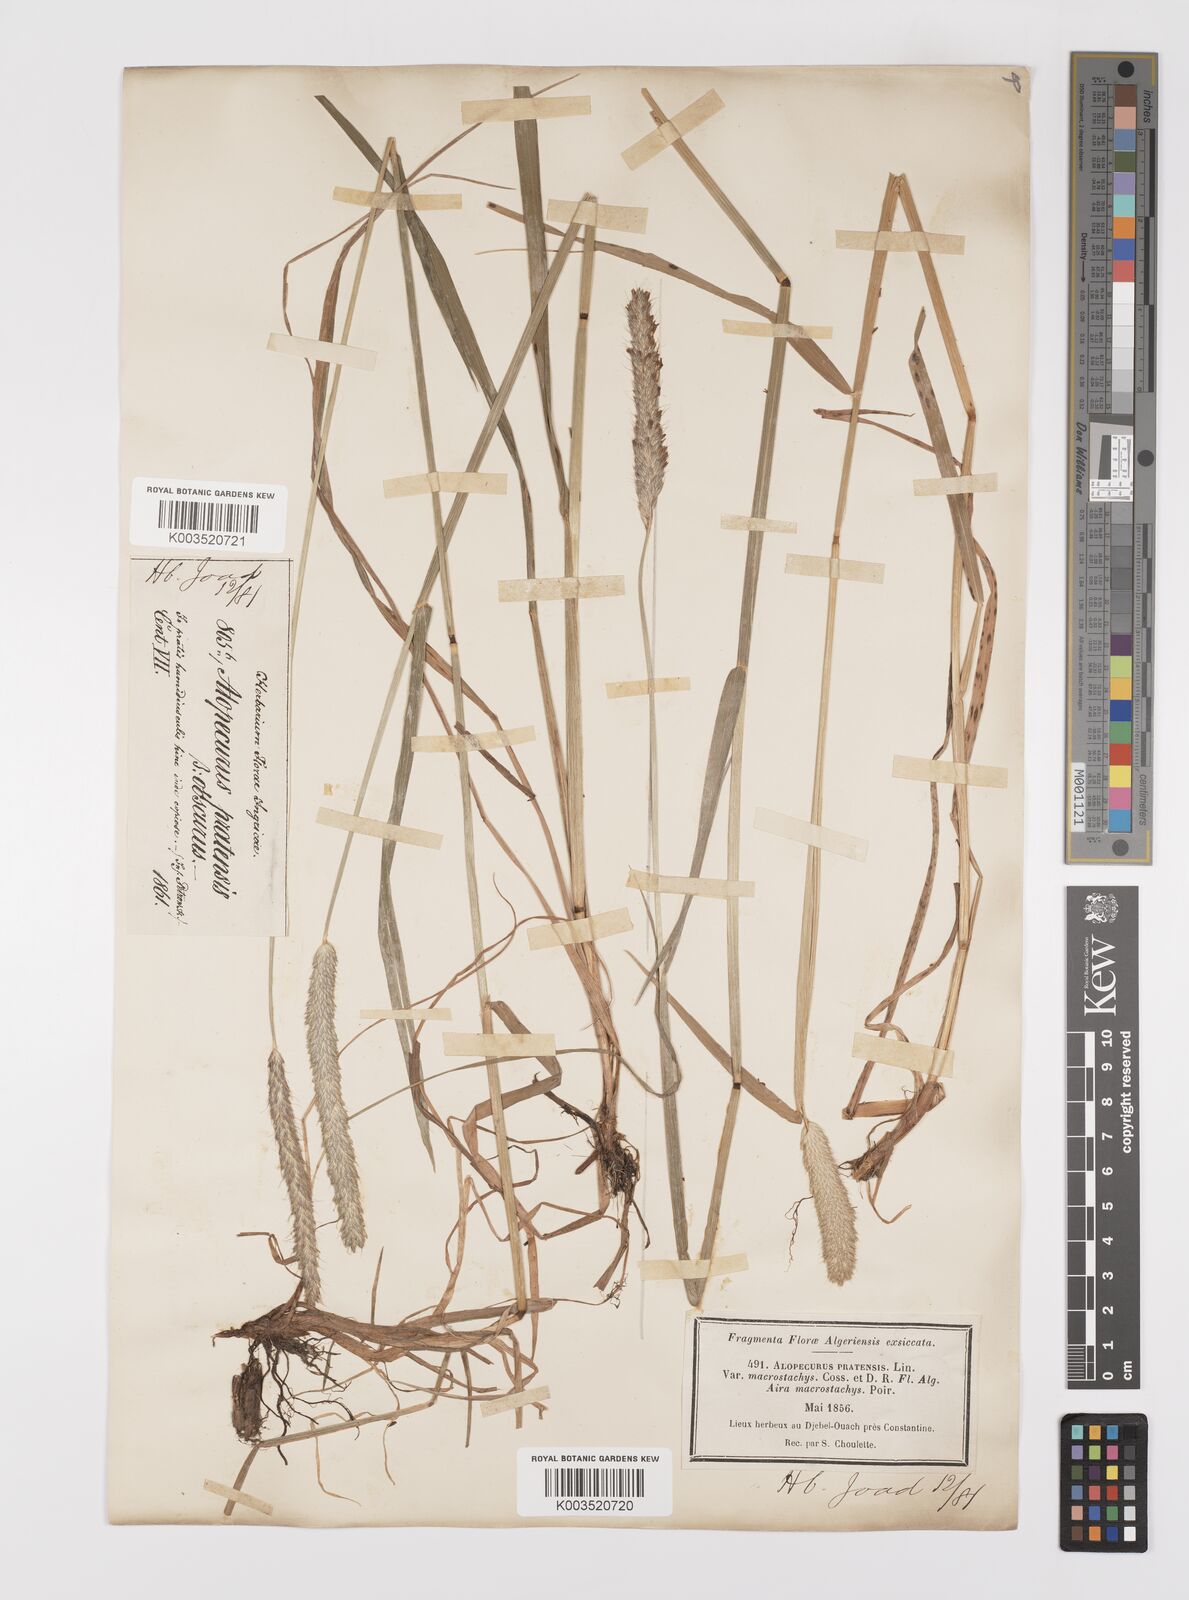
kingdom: Plantae
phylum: Tracheophyta
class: Liliopsida
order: Poales
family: Poaceae
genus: Alopecurus
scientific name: Alopecurus pratensis
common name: Meadow foxtail
